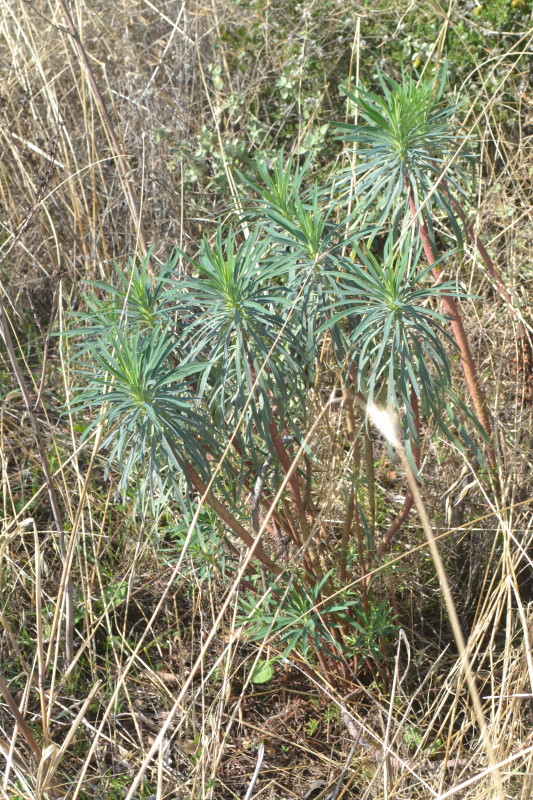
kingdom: Plantae
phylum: Tracheophyta
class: Magnoliopsida
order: Malpighiales
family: Euphorbiaceae
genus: Euphorbia
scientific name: Euphorbia characias
